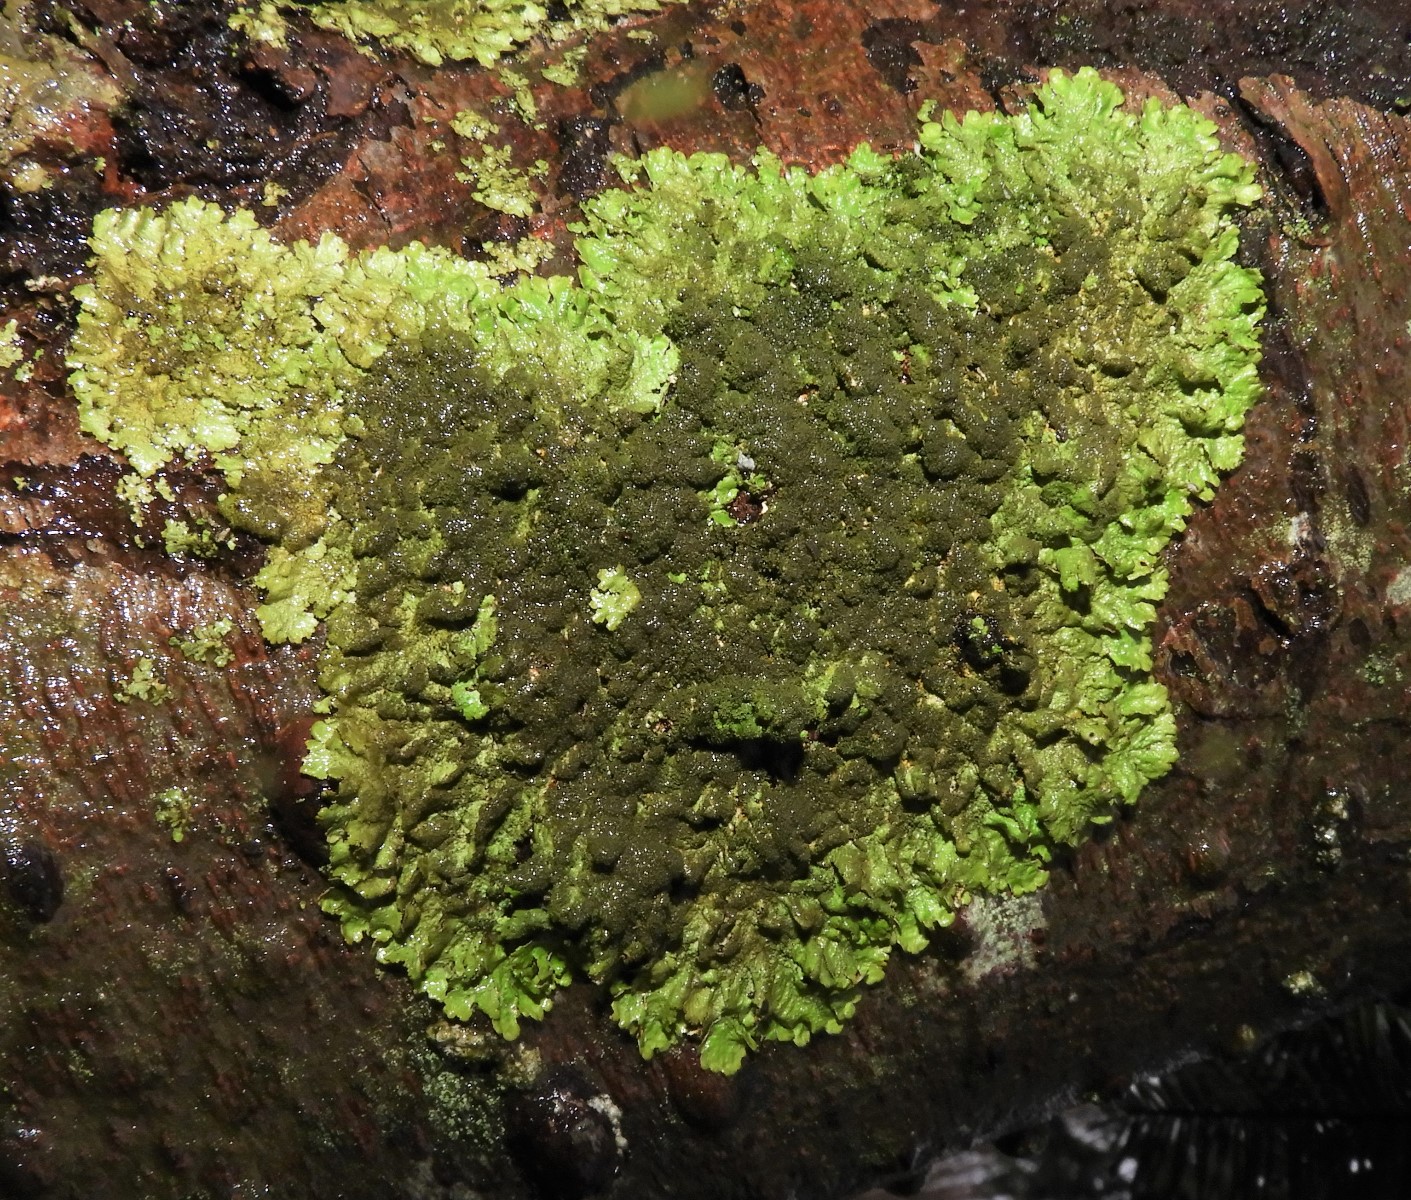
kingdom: Fungi
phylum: Ascomycota
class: Lecanoromycetes
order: Lecanorales
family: Parmeliaceae
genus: Melanelixia
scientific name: Melanelixia glabratula
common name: glinsende skållav
